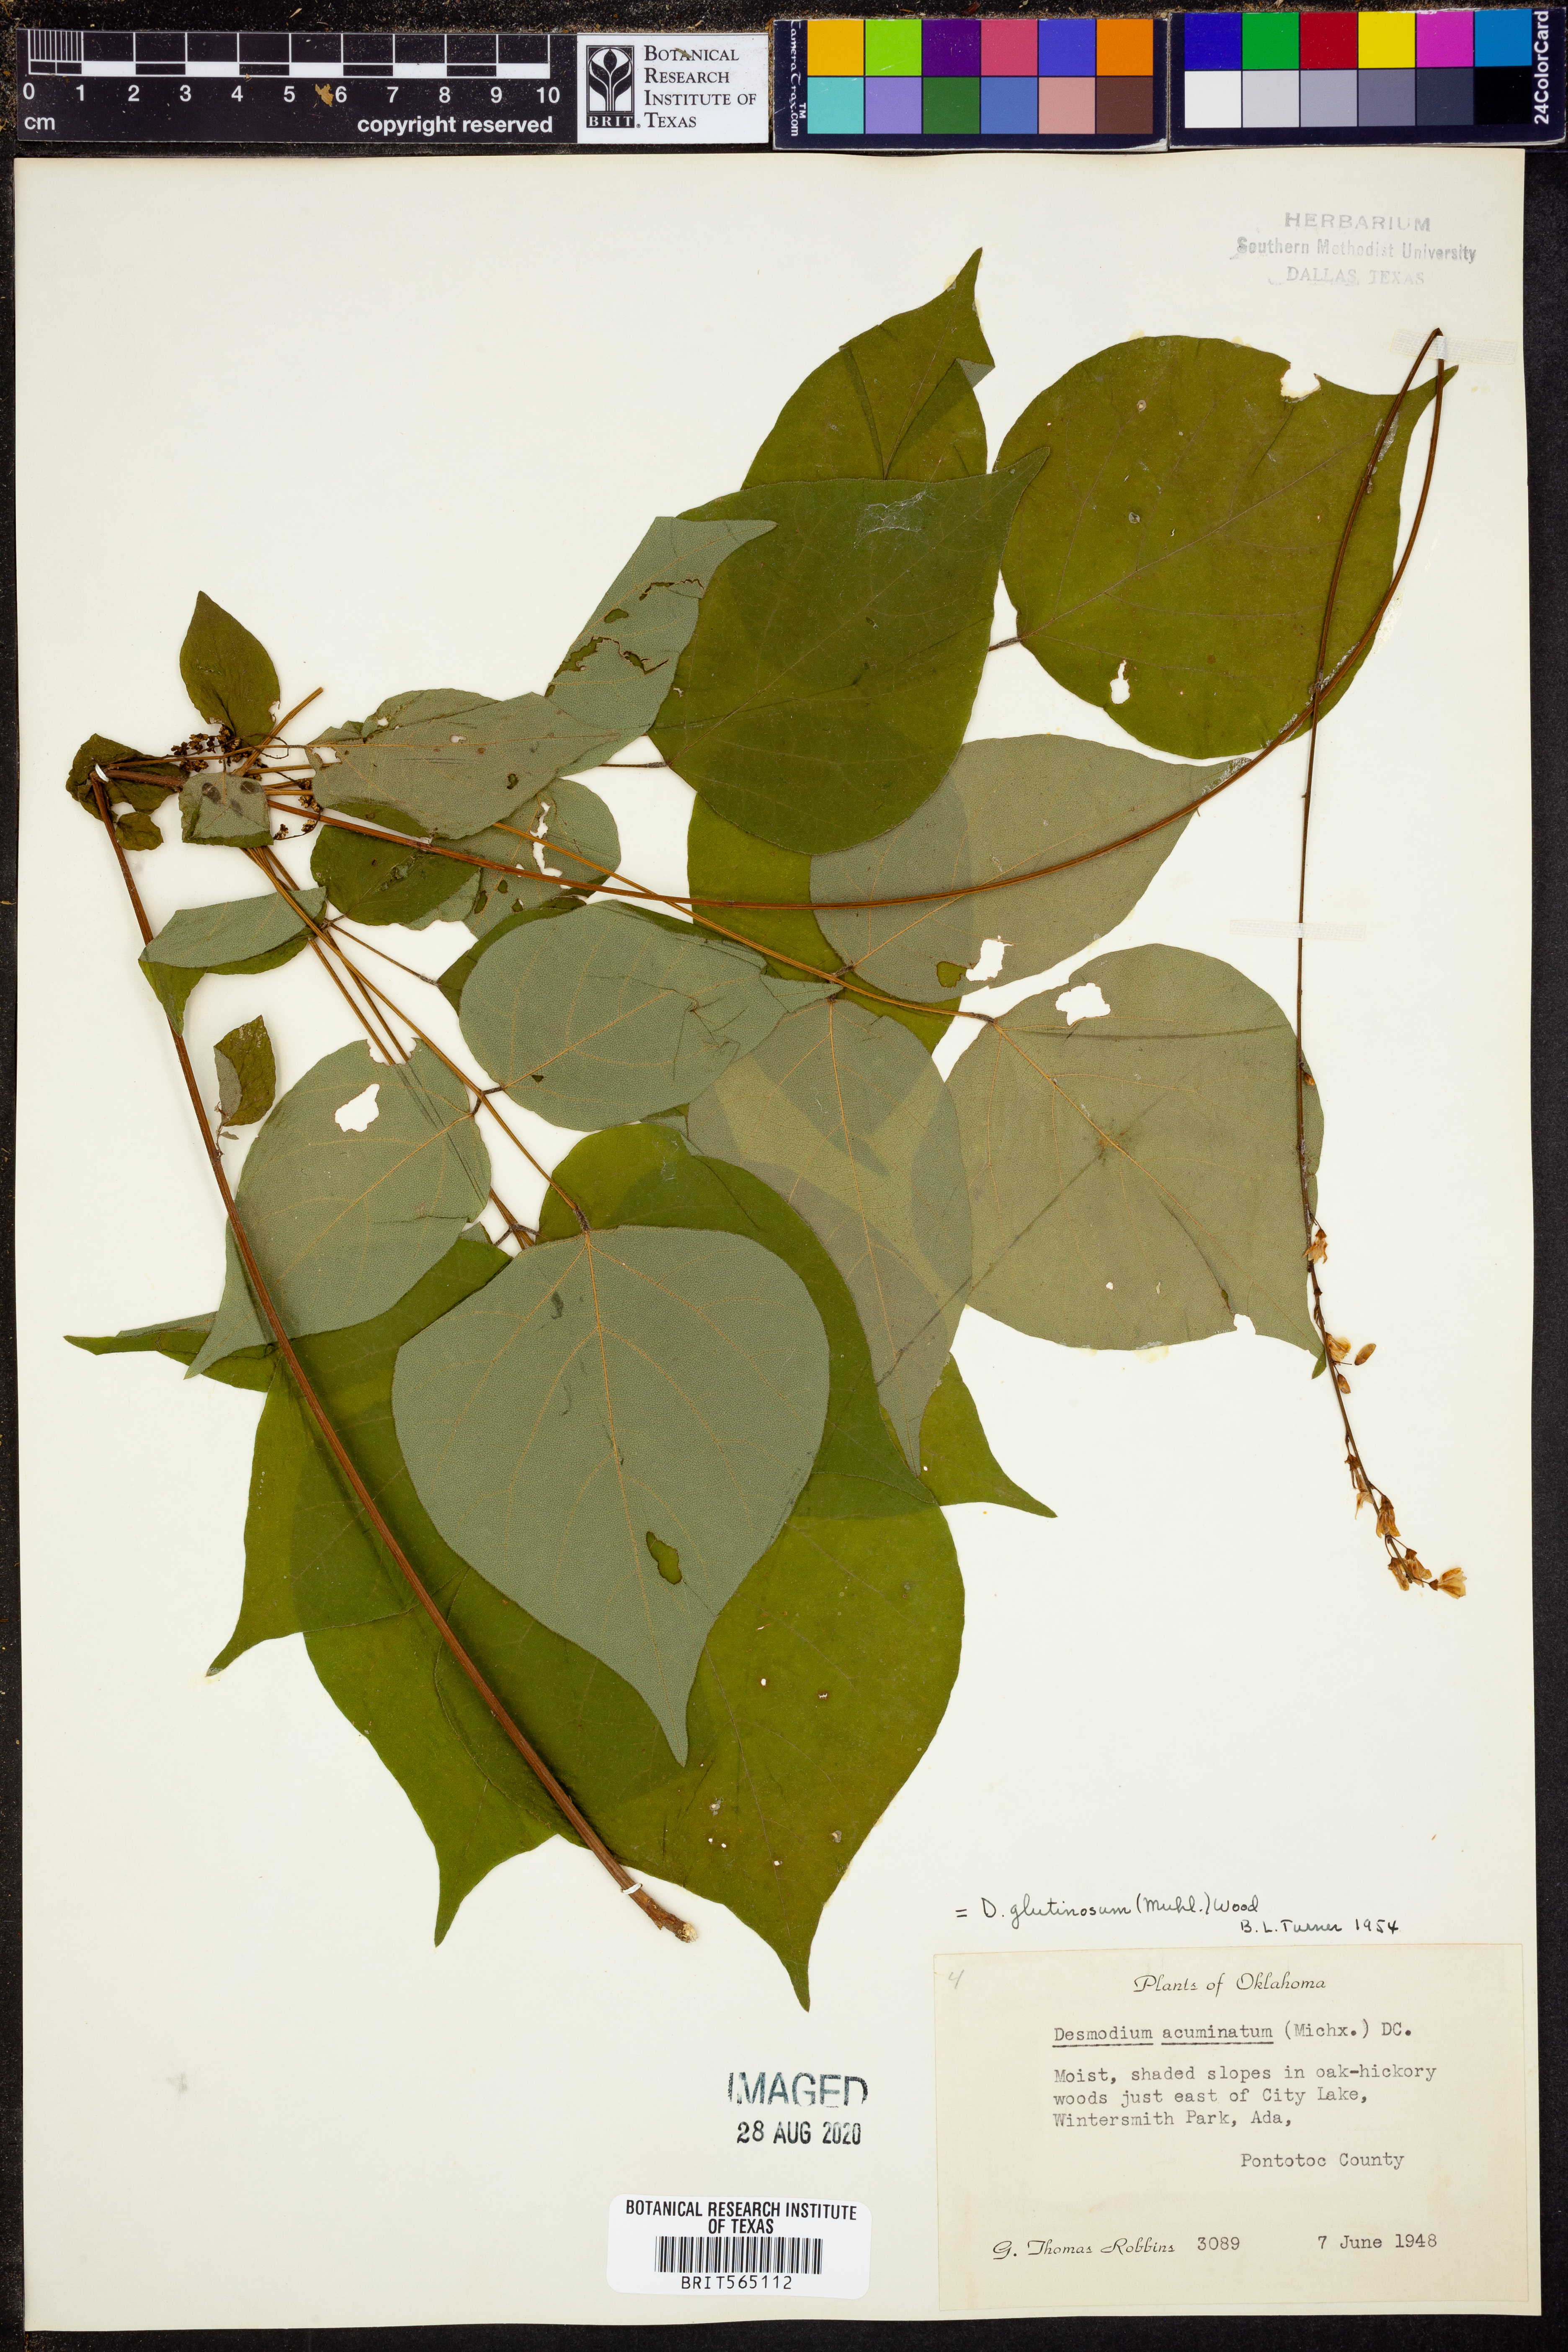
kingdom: Plantae
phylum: Tracheophyta
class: Magnoliopsida
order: Fabales
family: Fabaceae
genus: Hylodesmum
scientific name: Hylodesmum glutinosum
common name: Clustered-leaved tick-trefoil
